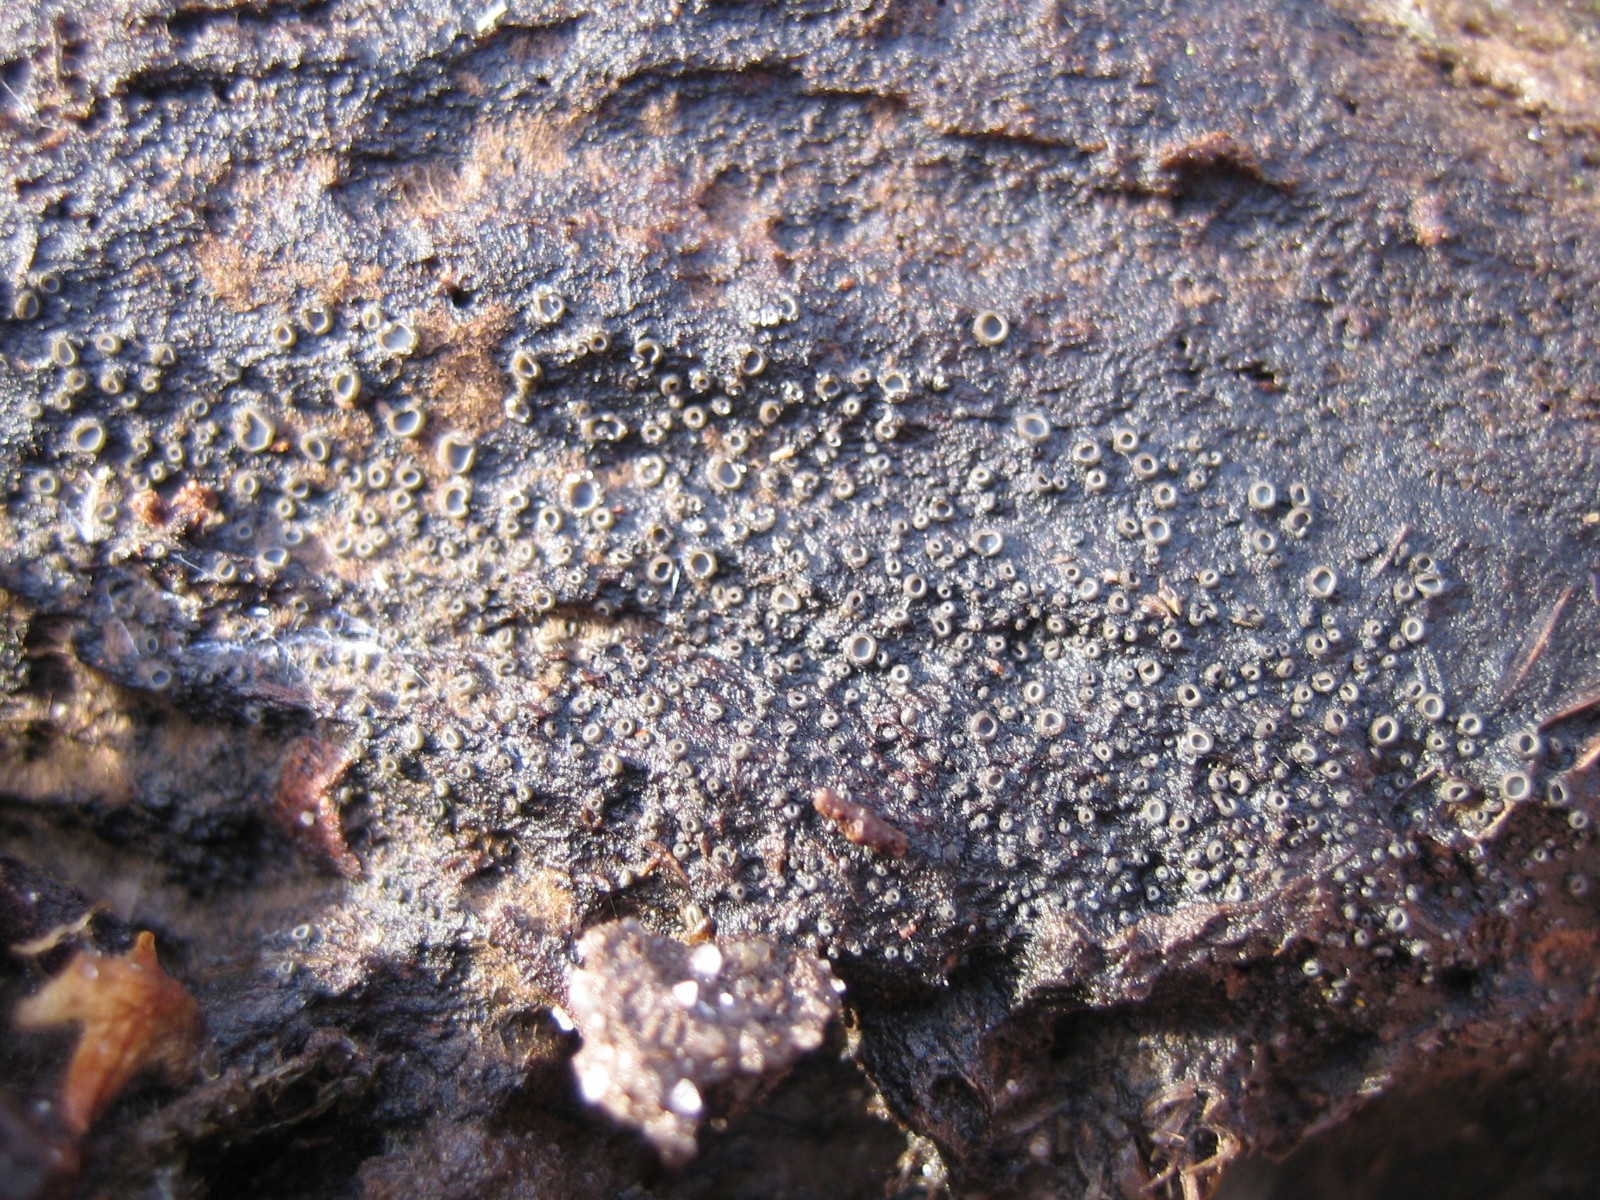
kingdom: Fungi
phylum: Ascomycota
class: Leotiomycetes
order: Helotiales
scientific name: Helotiales
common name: stilkskiveordenen
